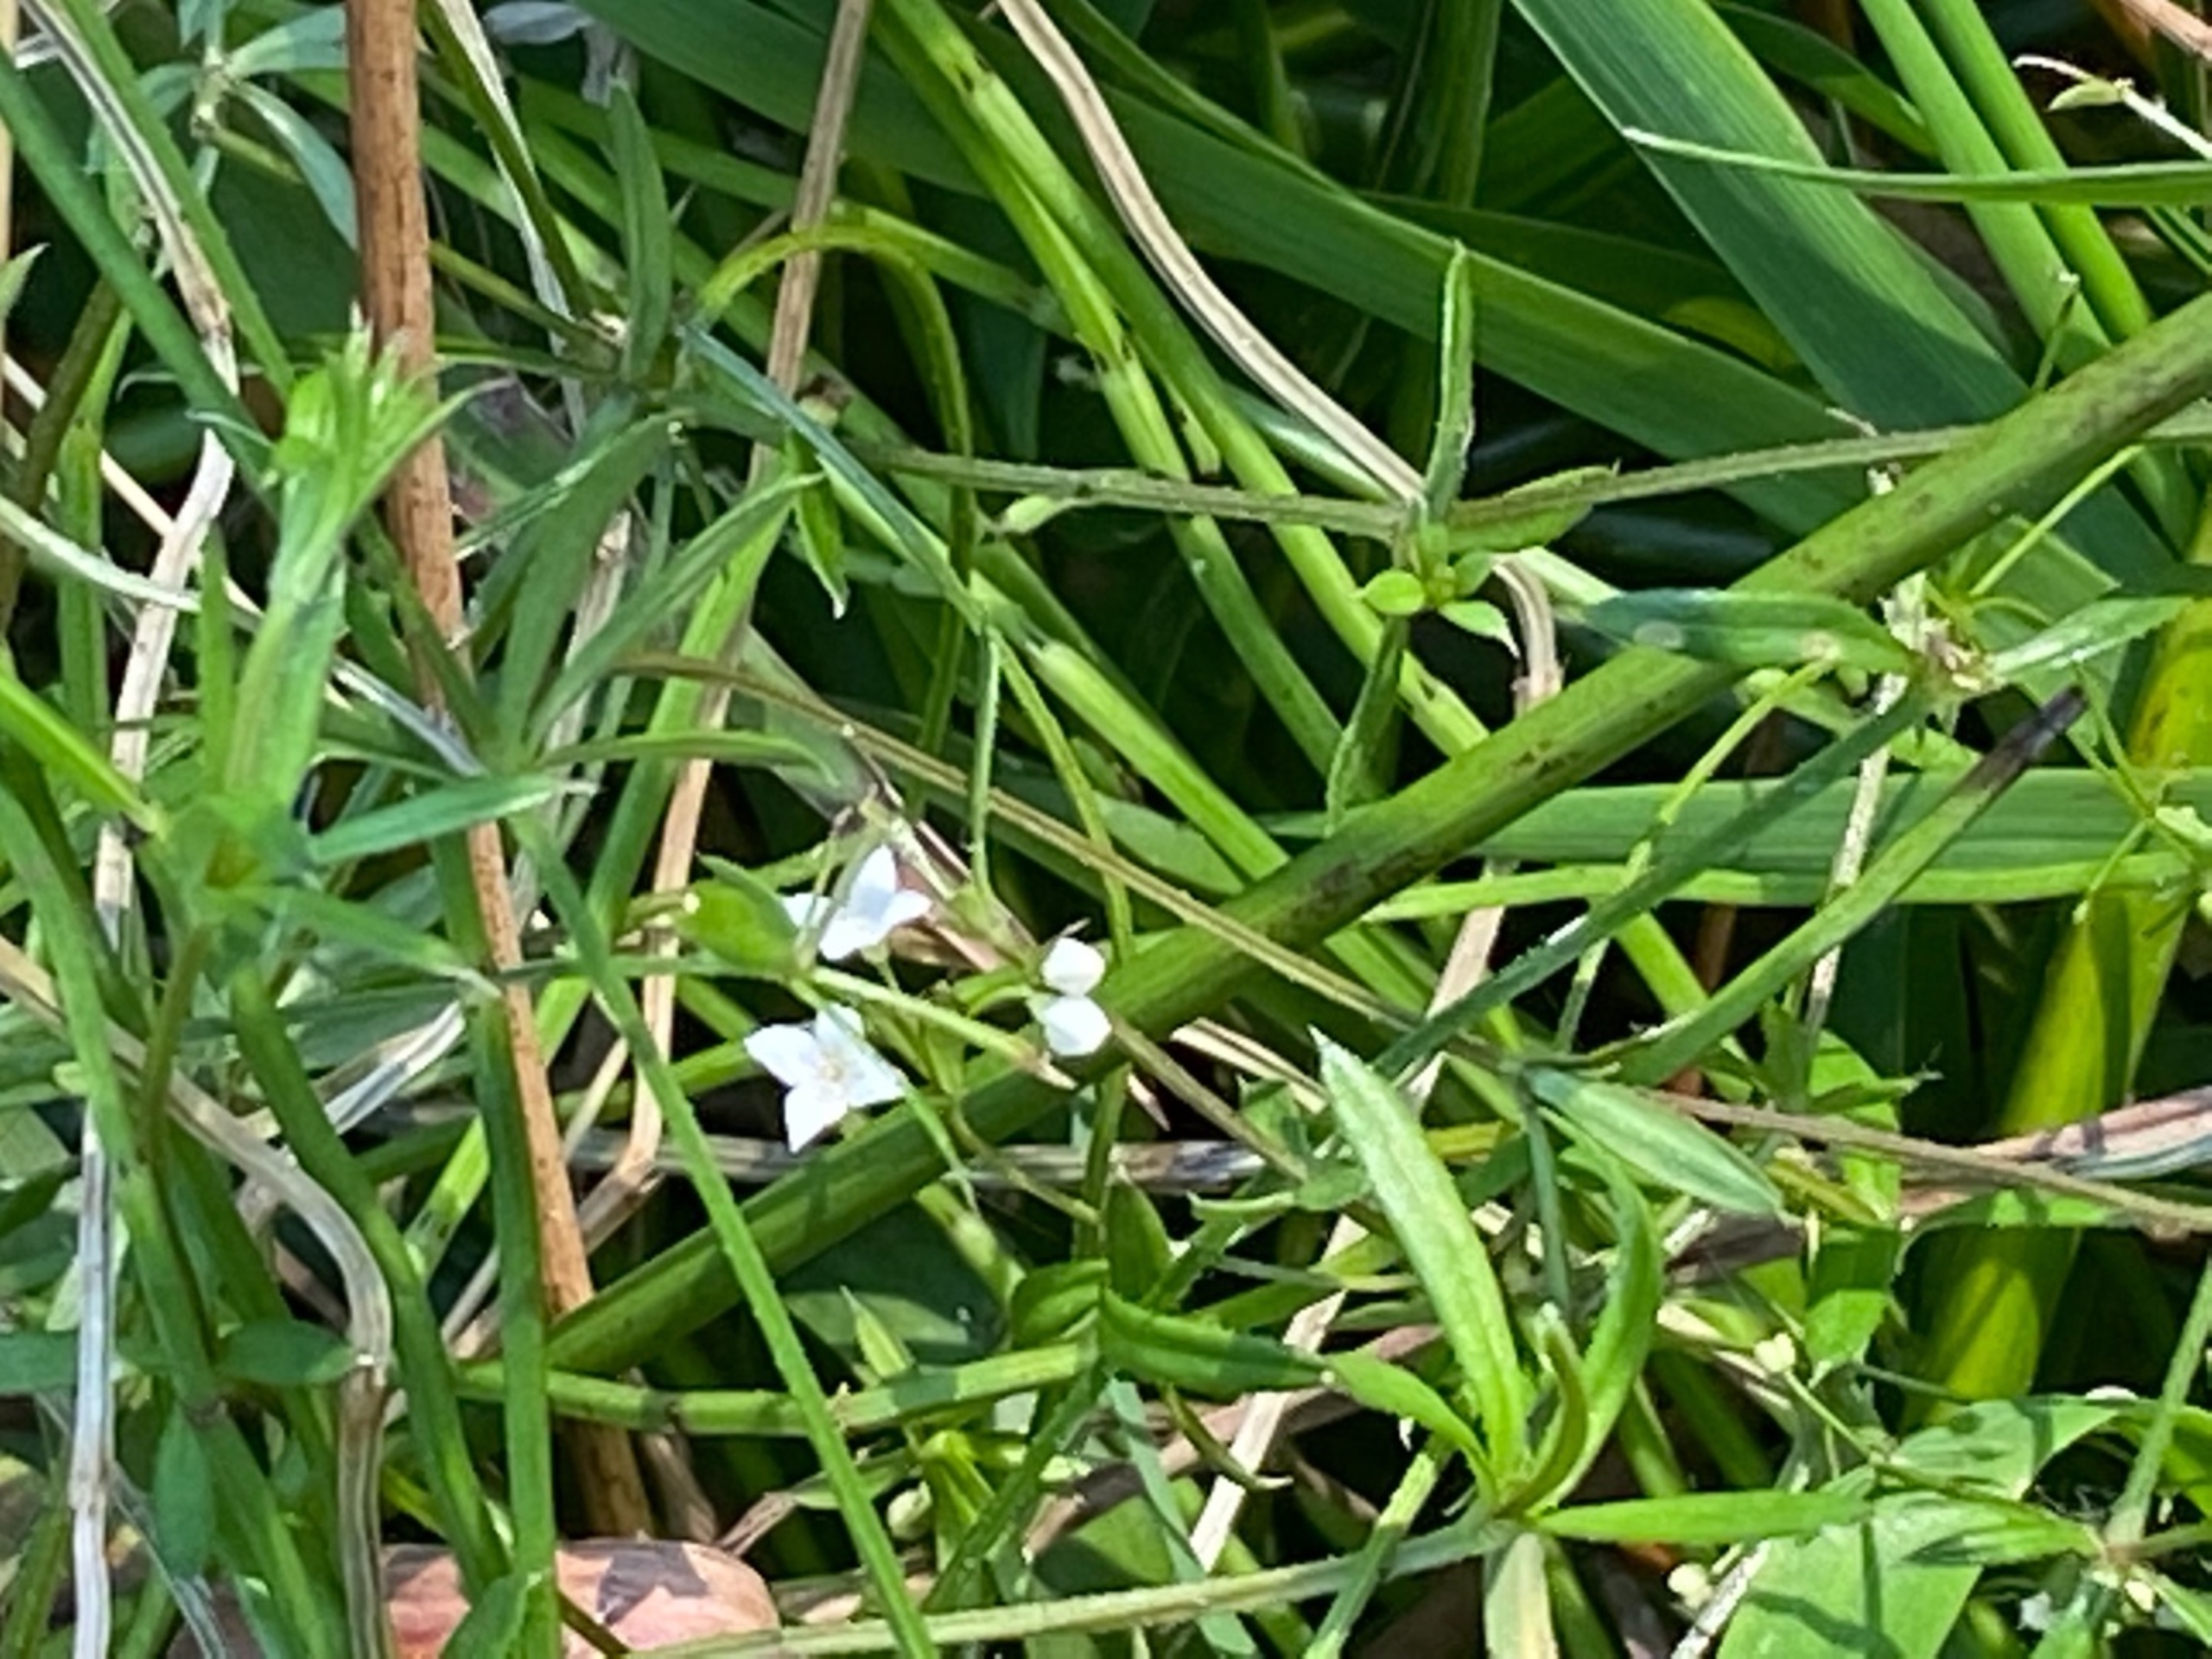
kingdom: Plantae
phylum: Tracheophyta
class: Magnoliopsida
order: Gentianales
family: Rubiaceae
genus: Galium
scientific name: Galium uliginosum
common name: Sump-snerre
